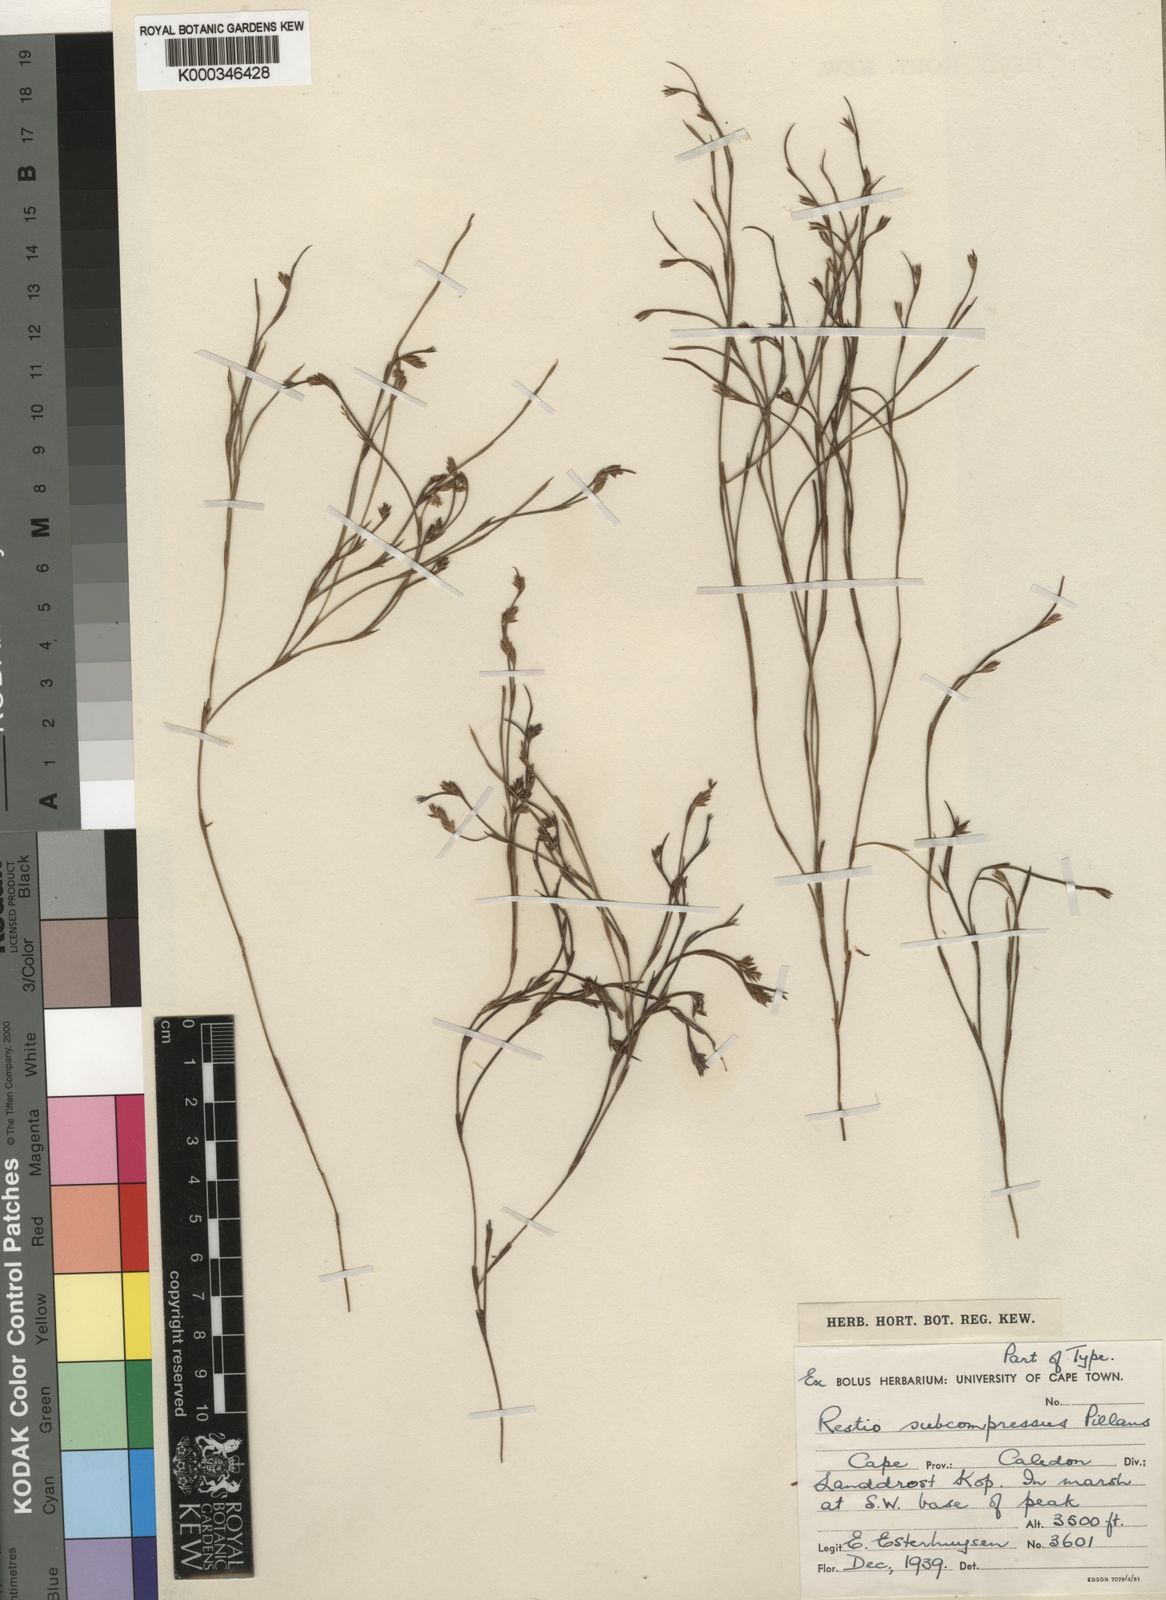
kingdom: Plantae
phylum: Tracheophyta
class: Liliopsida
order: Poales
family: Restionaceae
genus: Platycaulos
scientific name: Platycaulos subcompressus
